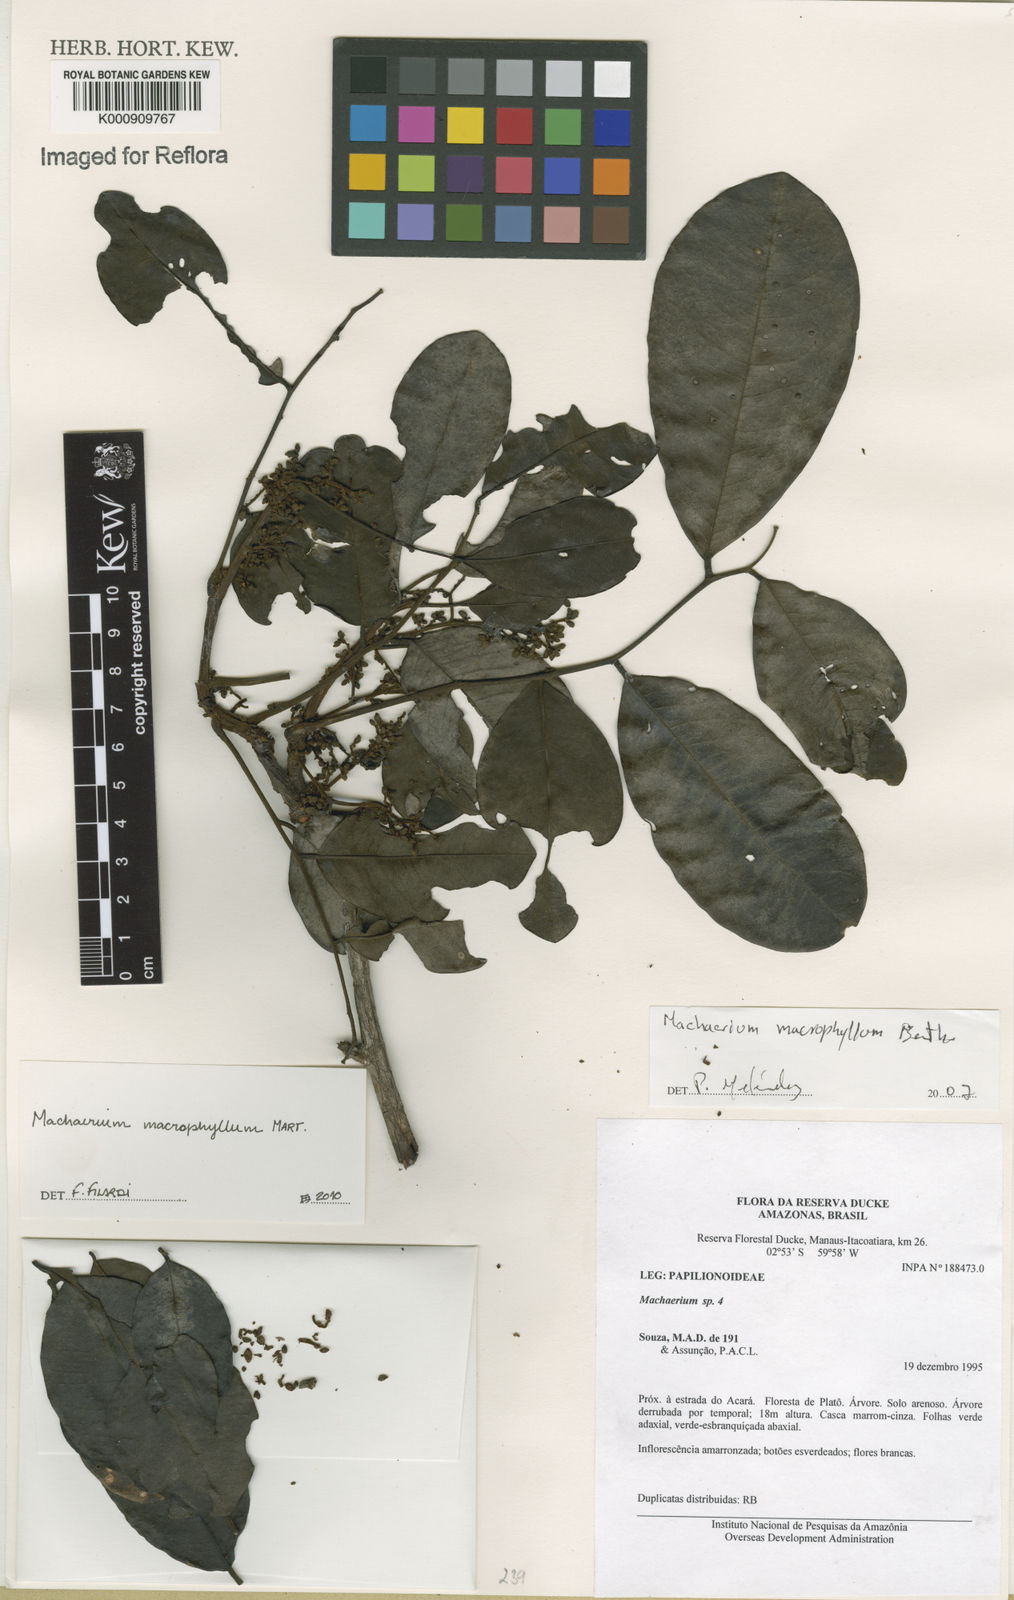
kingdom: Plantae
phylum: Tracheophyta
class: Magnoliopsida
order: Fabales
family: Fabaceae
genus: Machaerium
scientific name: Machaerium macrophyllum
